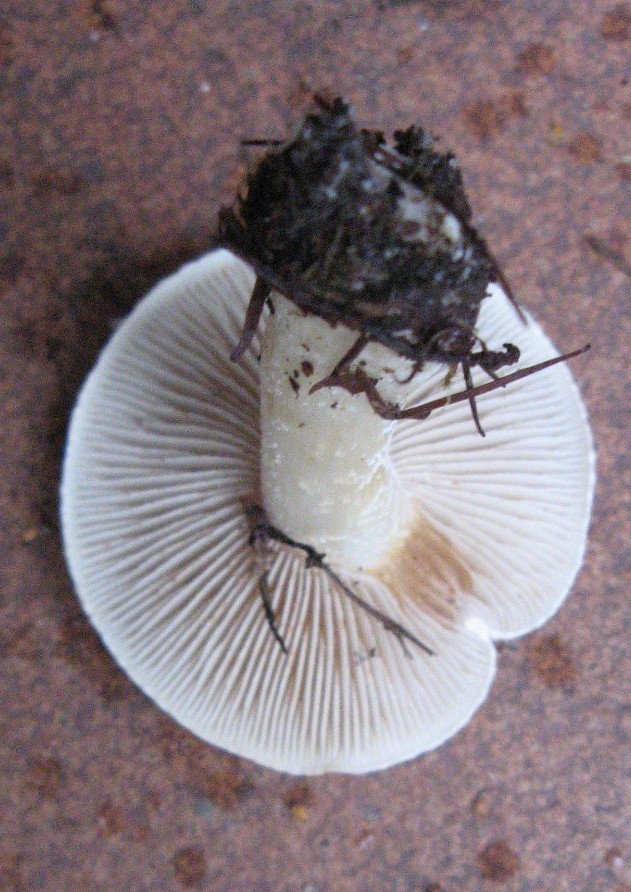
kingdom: Fungi
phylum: Basidiomycota
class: Agaricomycetes
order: Agaricales
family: Hymenogastraceae
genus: Hebeloma
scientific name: Hebeloma crustuliniforme
